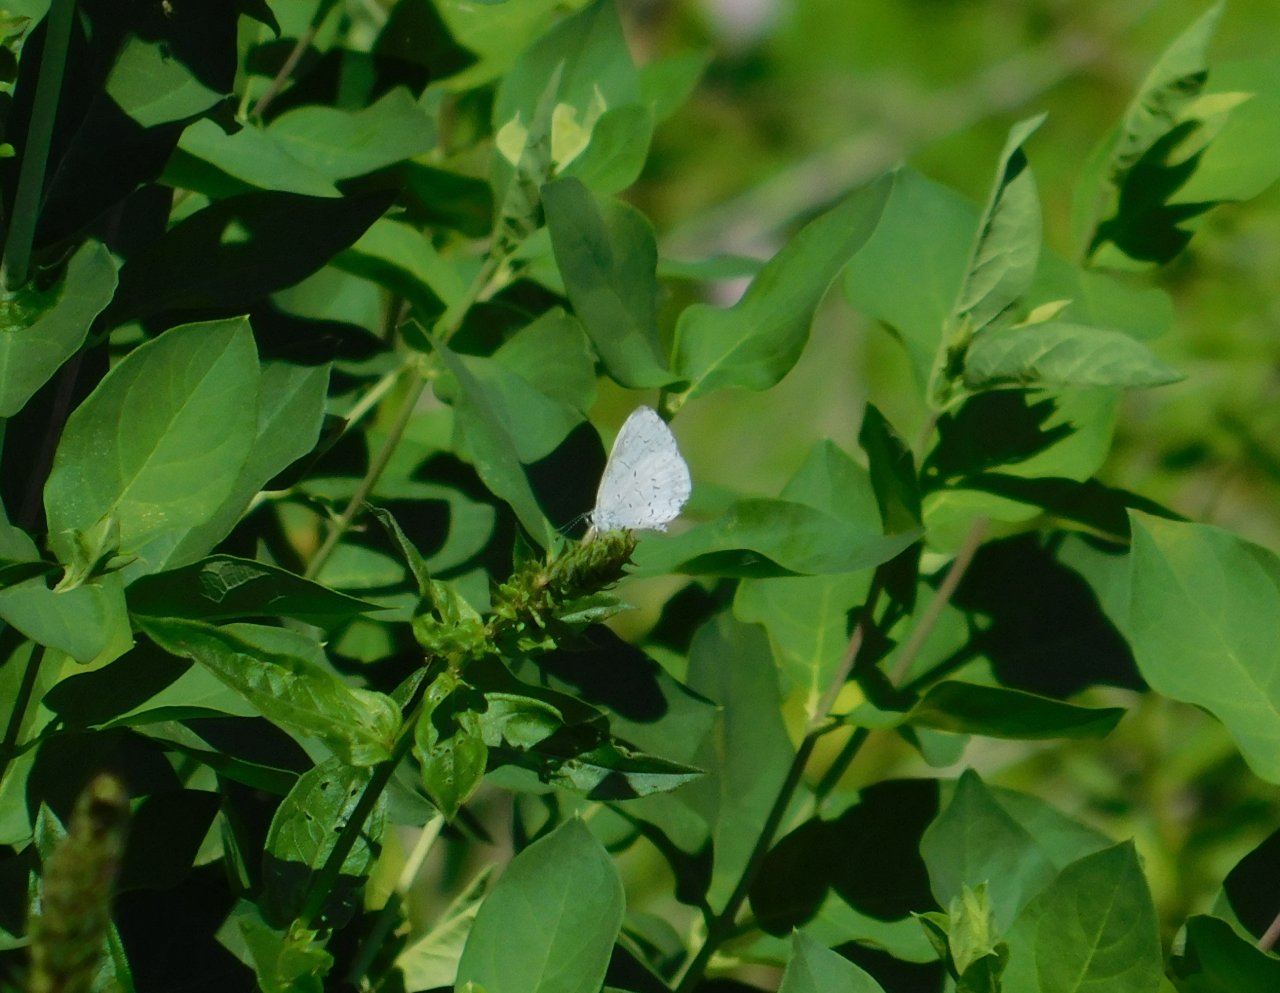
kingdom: Animalia
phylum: Arthropoda
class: Insecta
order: Lepidoptera
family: Lycaenidae
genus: Celastrina
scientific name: Celastrina
